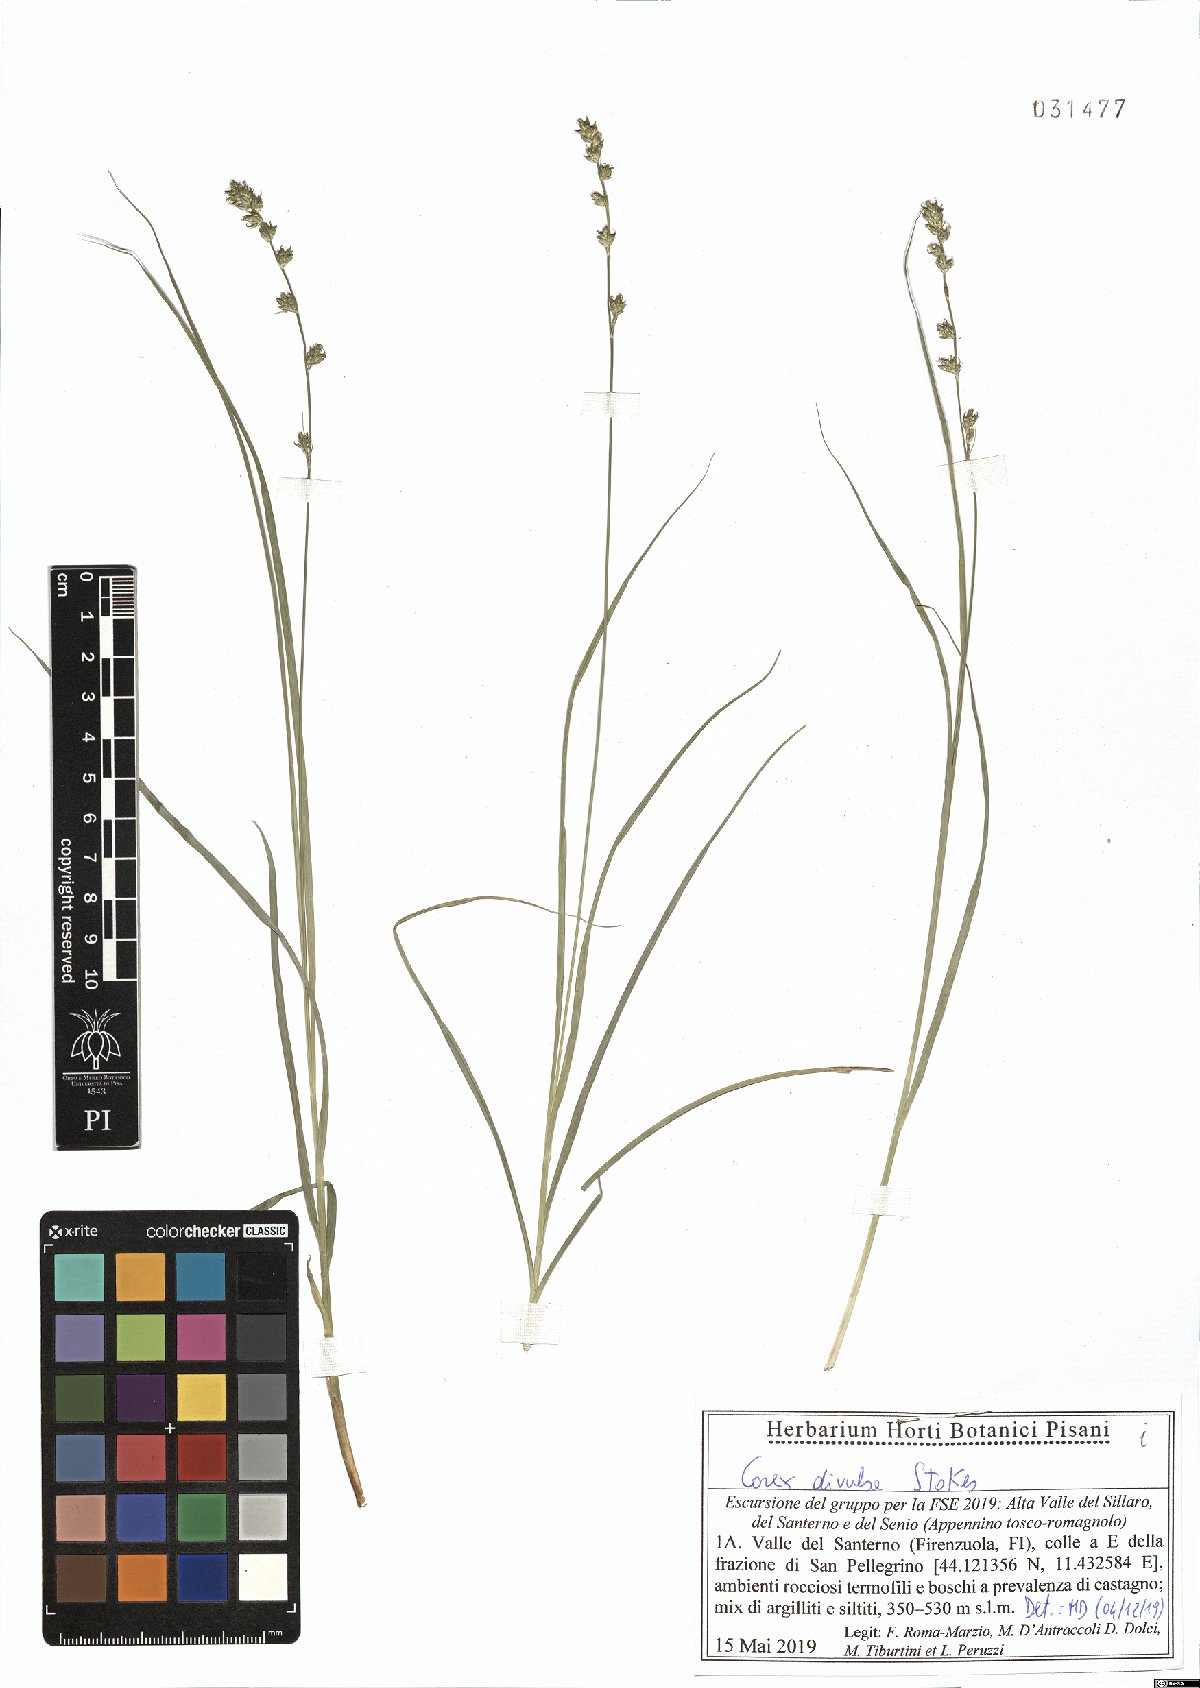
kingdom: Plantae
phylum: Tracheophyta
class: Liliopsida
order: Poales
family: Cyperaceae
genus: Carex
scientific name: Carex divulsa
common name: Grassland sedge
